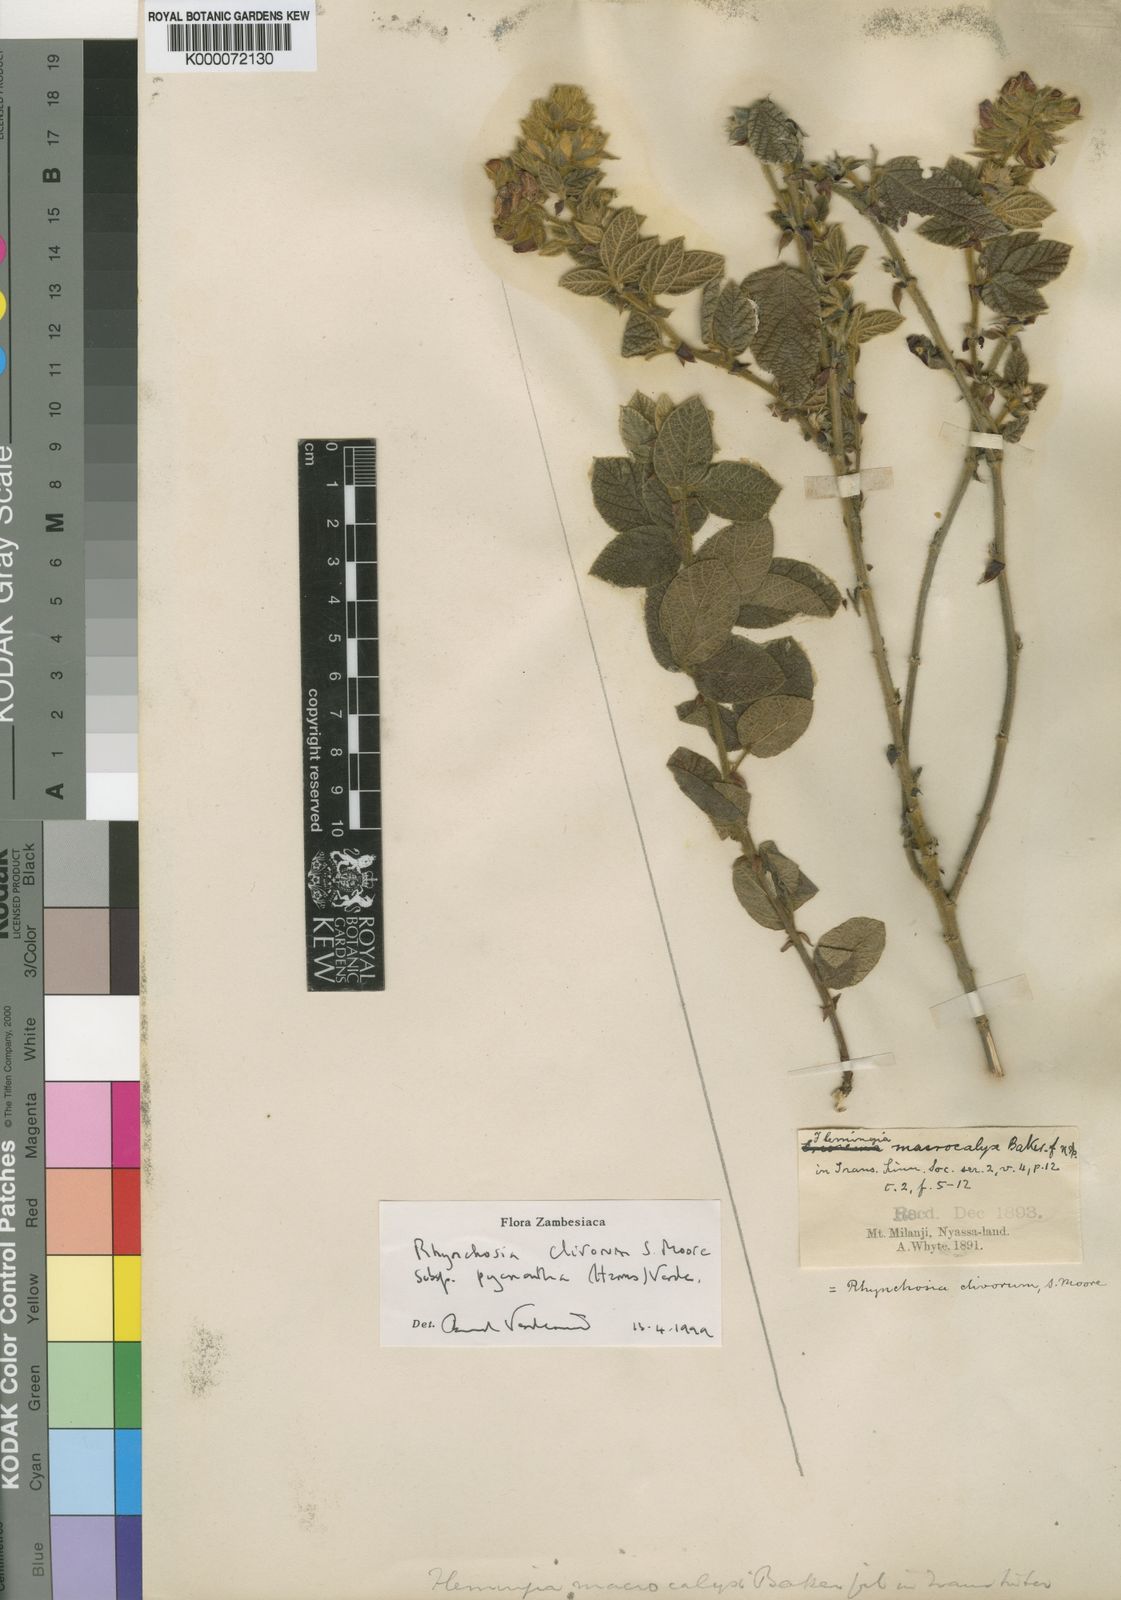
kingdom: Plantae
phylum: Tracheophyta
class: Magnoliopsida
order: Fabales
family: Fabaceae
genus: Rhynchosia
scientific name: Rhynchosia clivorum
